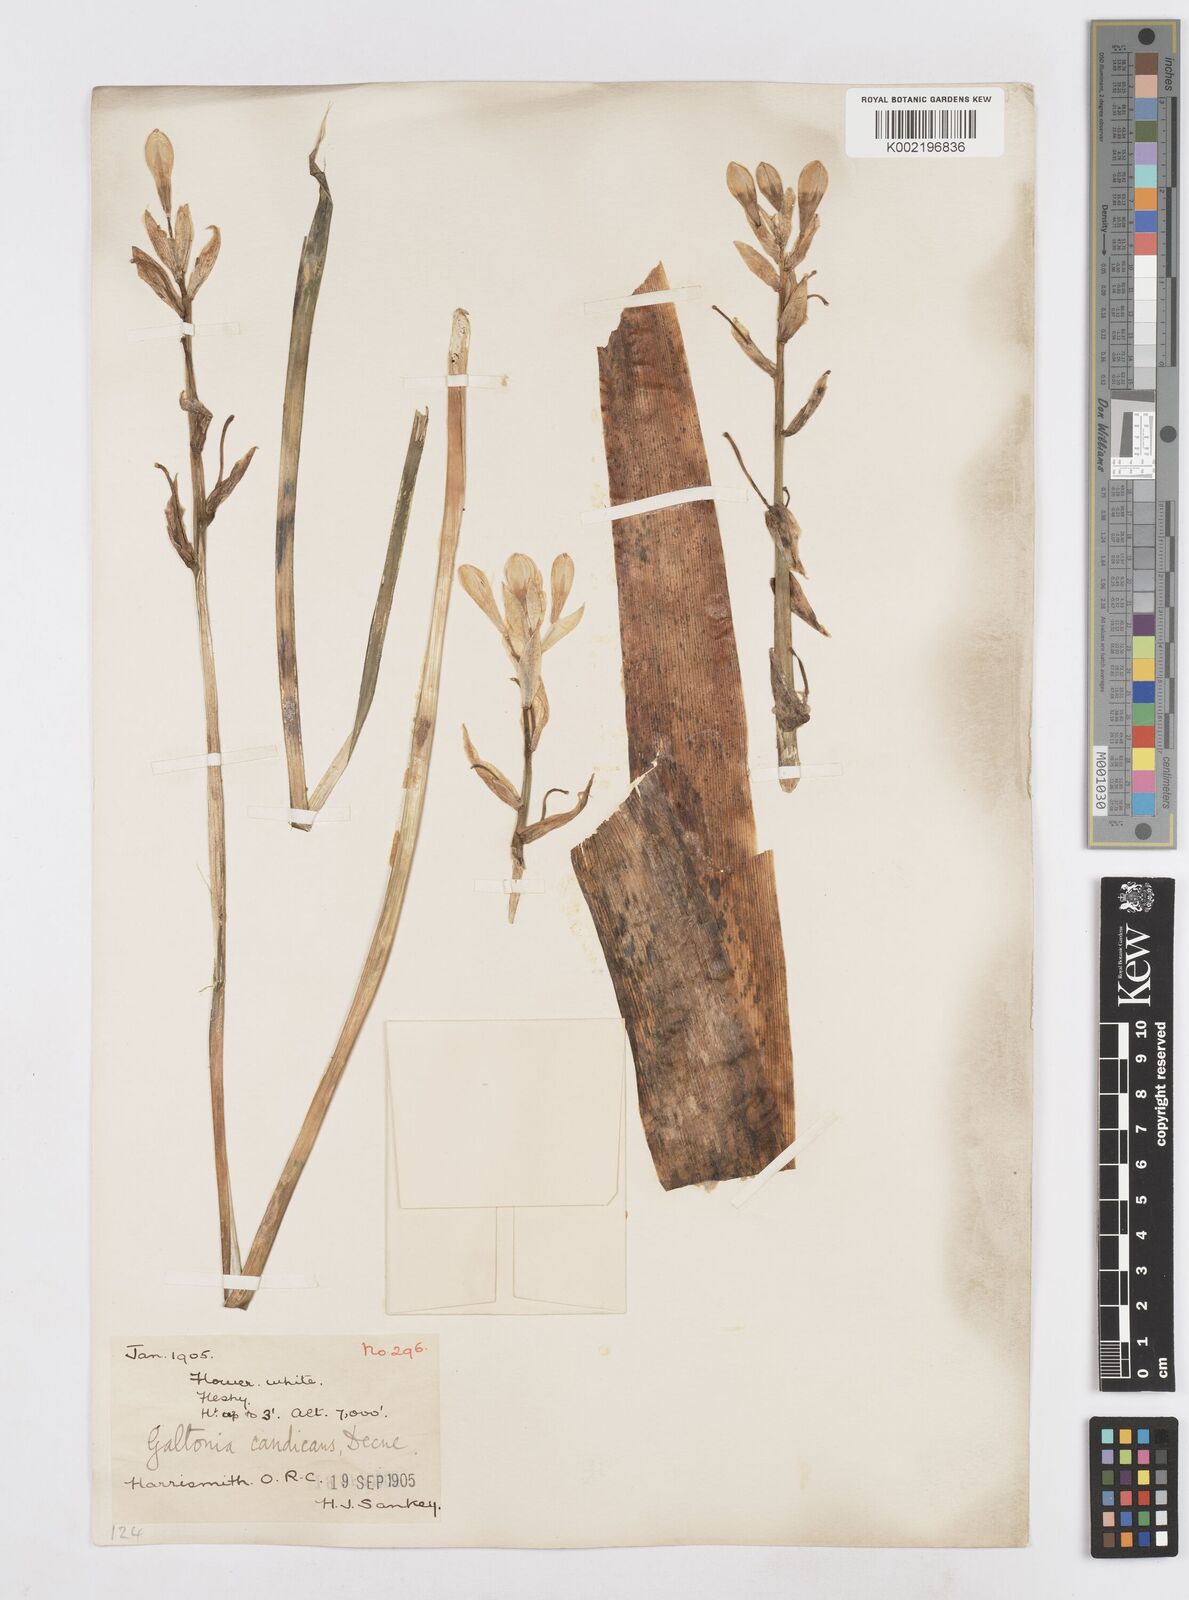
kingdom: Plantae
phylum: Tracheophyta
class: Liliopsida
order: Asparagales
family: Asparagaceae
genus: Ornithogalum
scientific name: Ornithogalum candicans
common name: Summer-hyacinth
